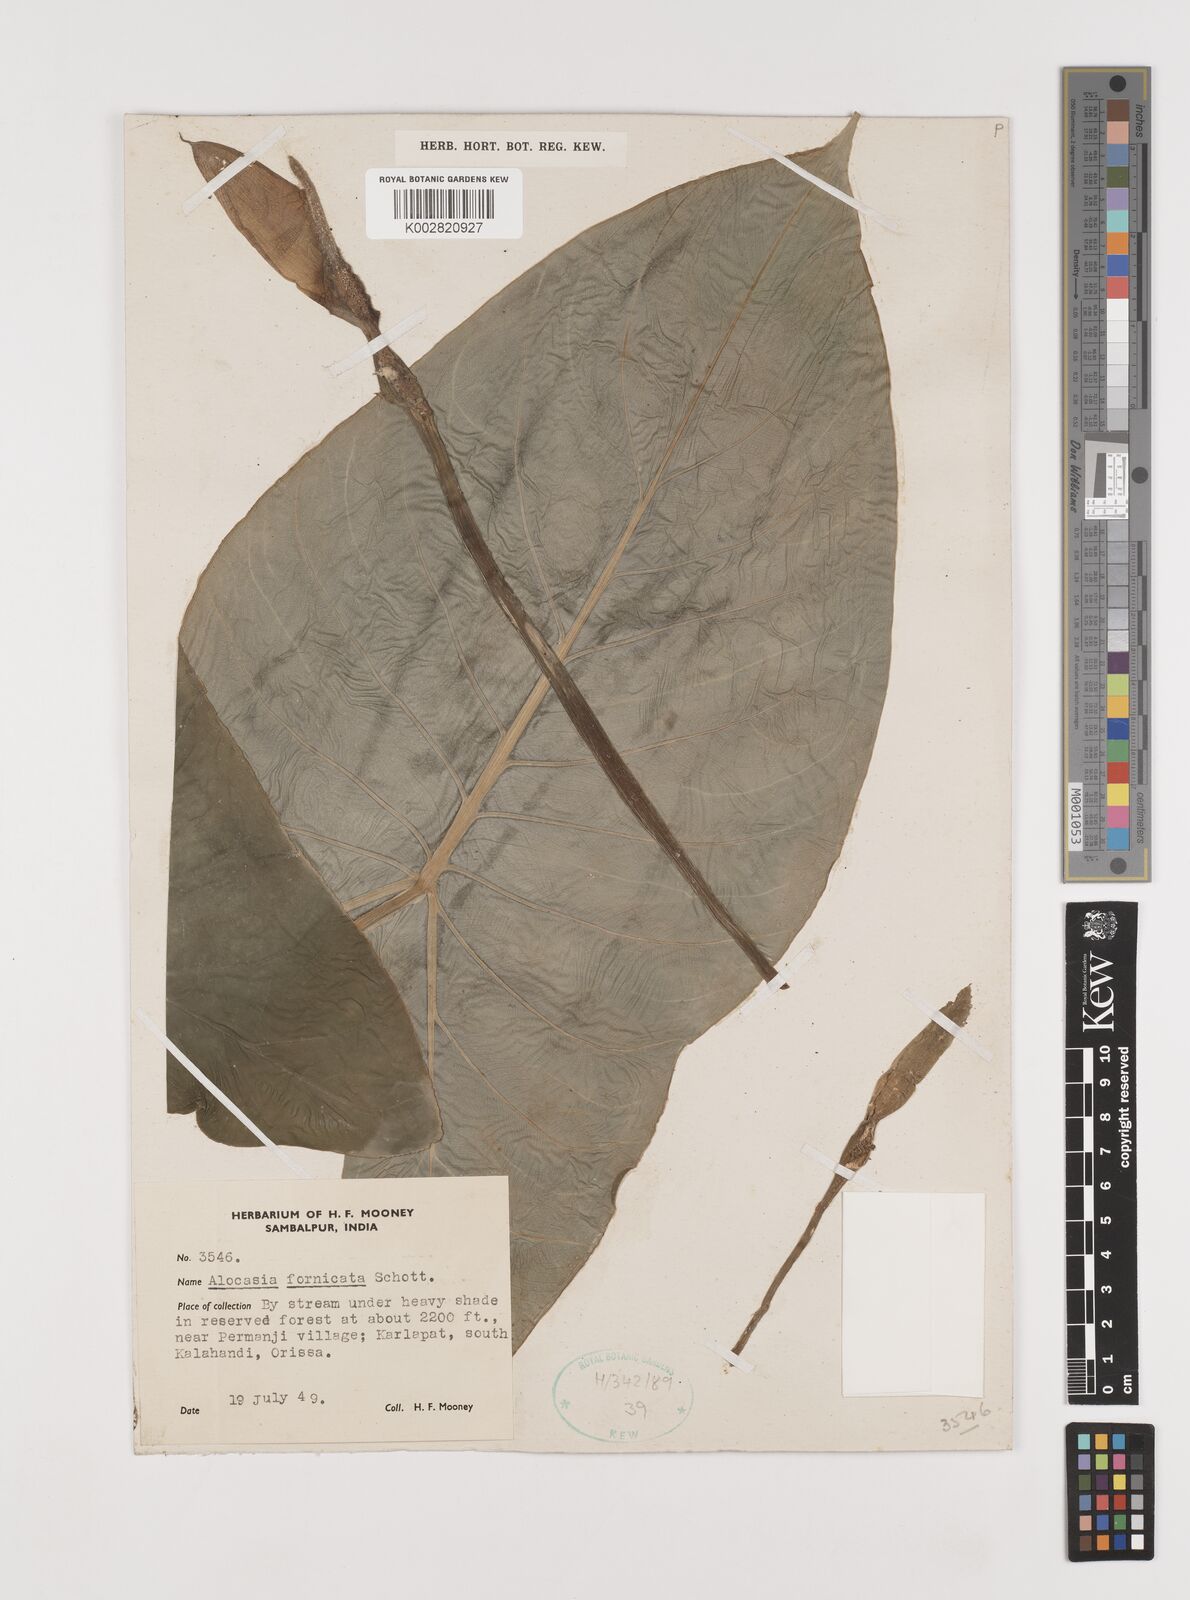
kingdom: Plantae
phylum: Tracheophyta
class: Liliopsida
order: Alismatales
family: Araceae
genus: Alocasia
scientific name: Alocasia fornicata
